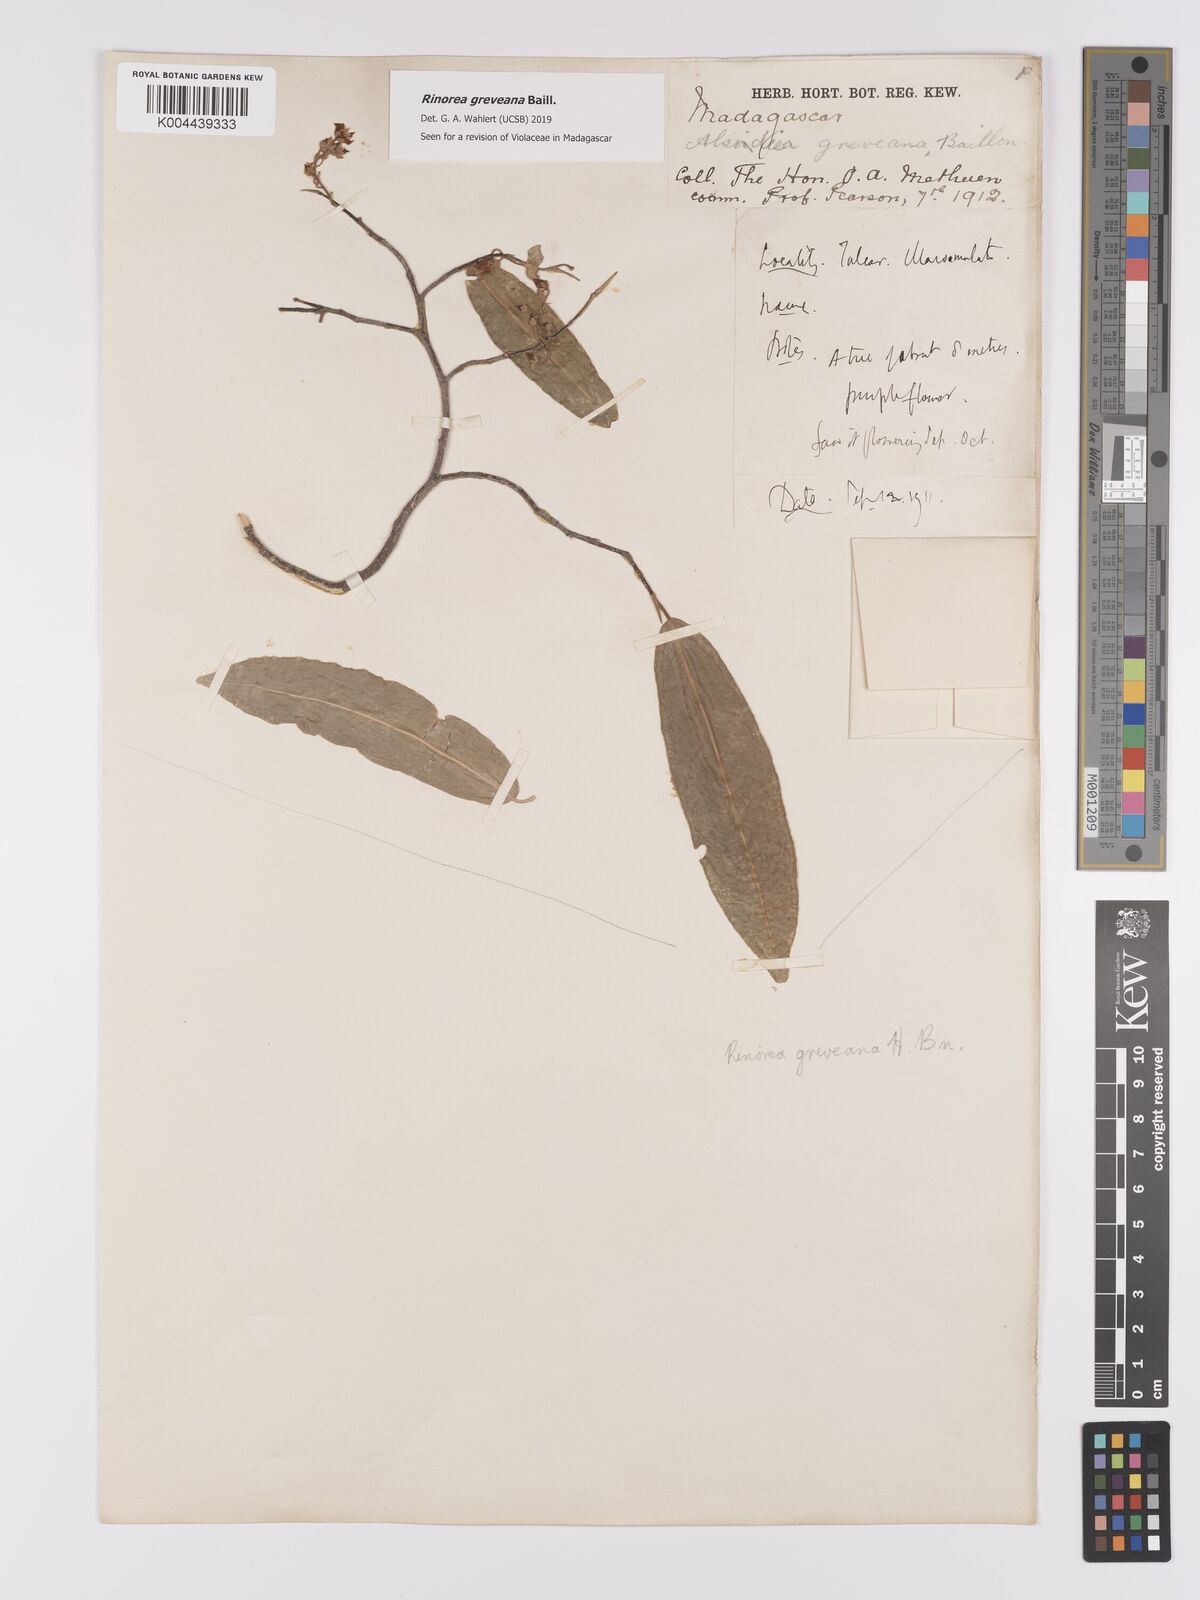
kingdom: Plantae
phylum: Tracheophyta
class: Magnoliopsida
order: Malpighiales
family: Violaceae
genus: Rinorea
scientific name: Rinorea greveana
